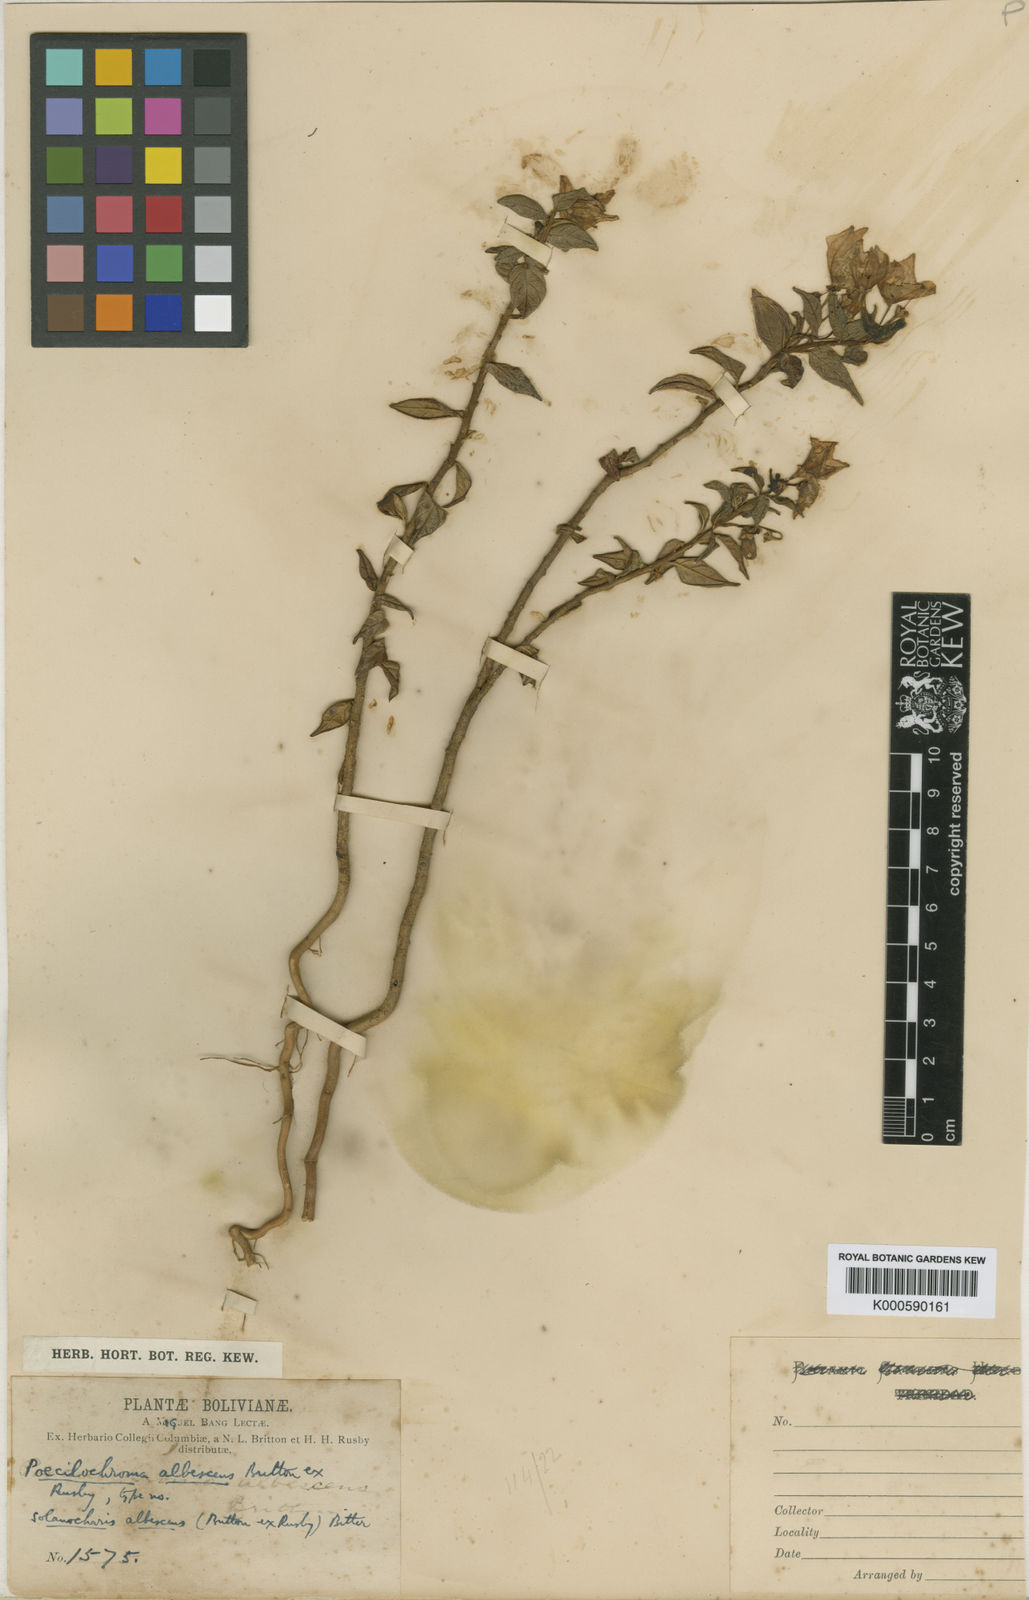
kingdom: Plantae
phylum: Tracheophyta
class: Magnoliopsida
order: Solanales
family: Solanaceae
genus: Solanum
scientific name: Solanum albescens
